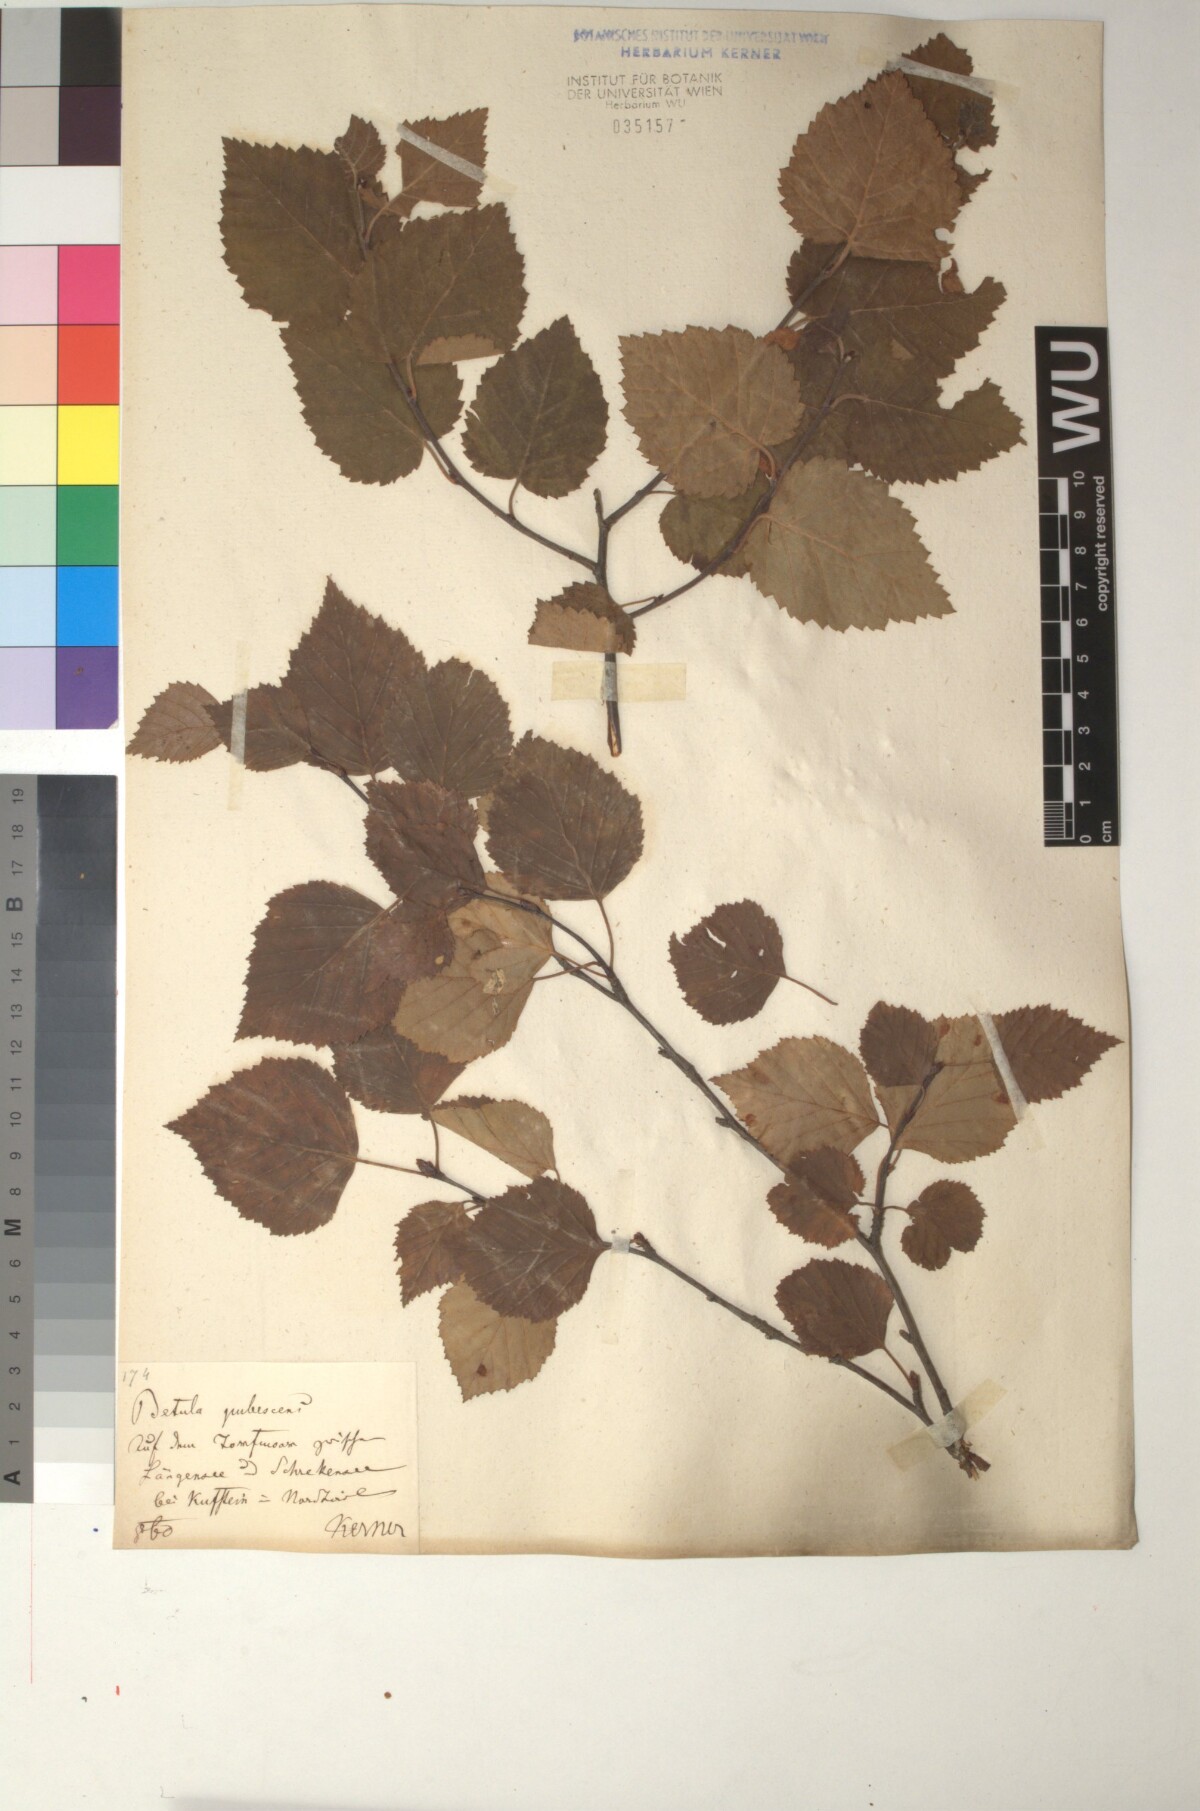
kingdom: Plantae
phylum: Tracheophyta
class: Magnoliopsida
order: Fagales
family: Betulaceae
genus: Betula
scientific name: Betula pubescens
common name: Downy birch
